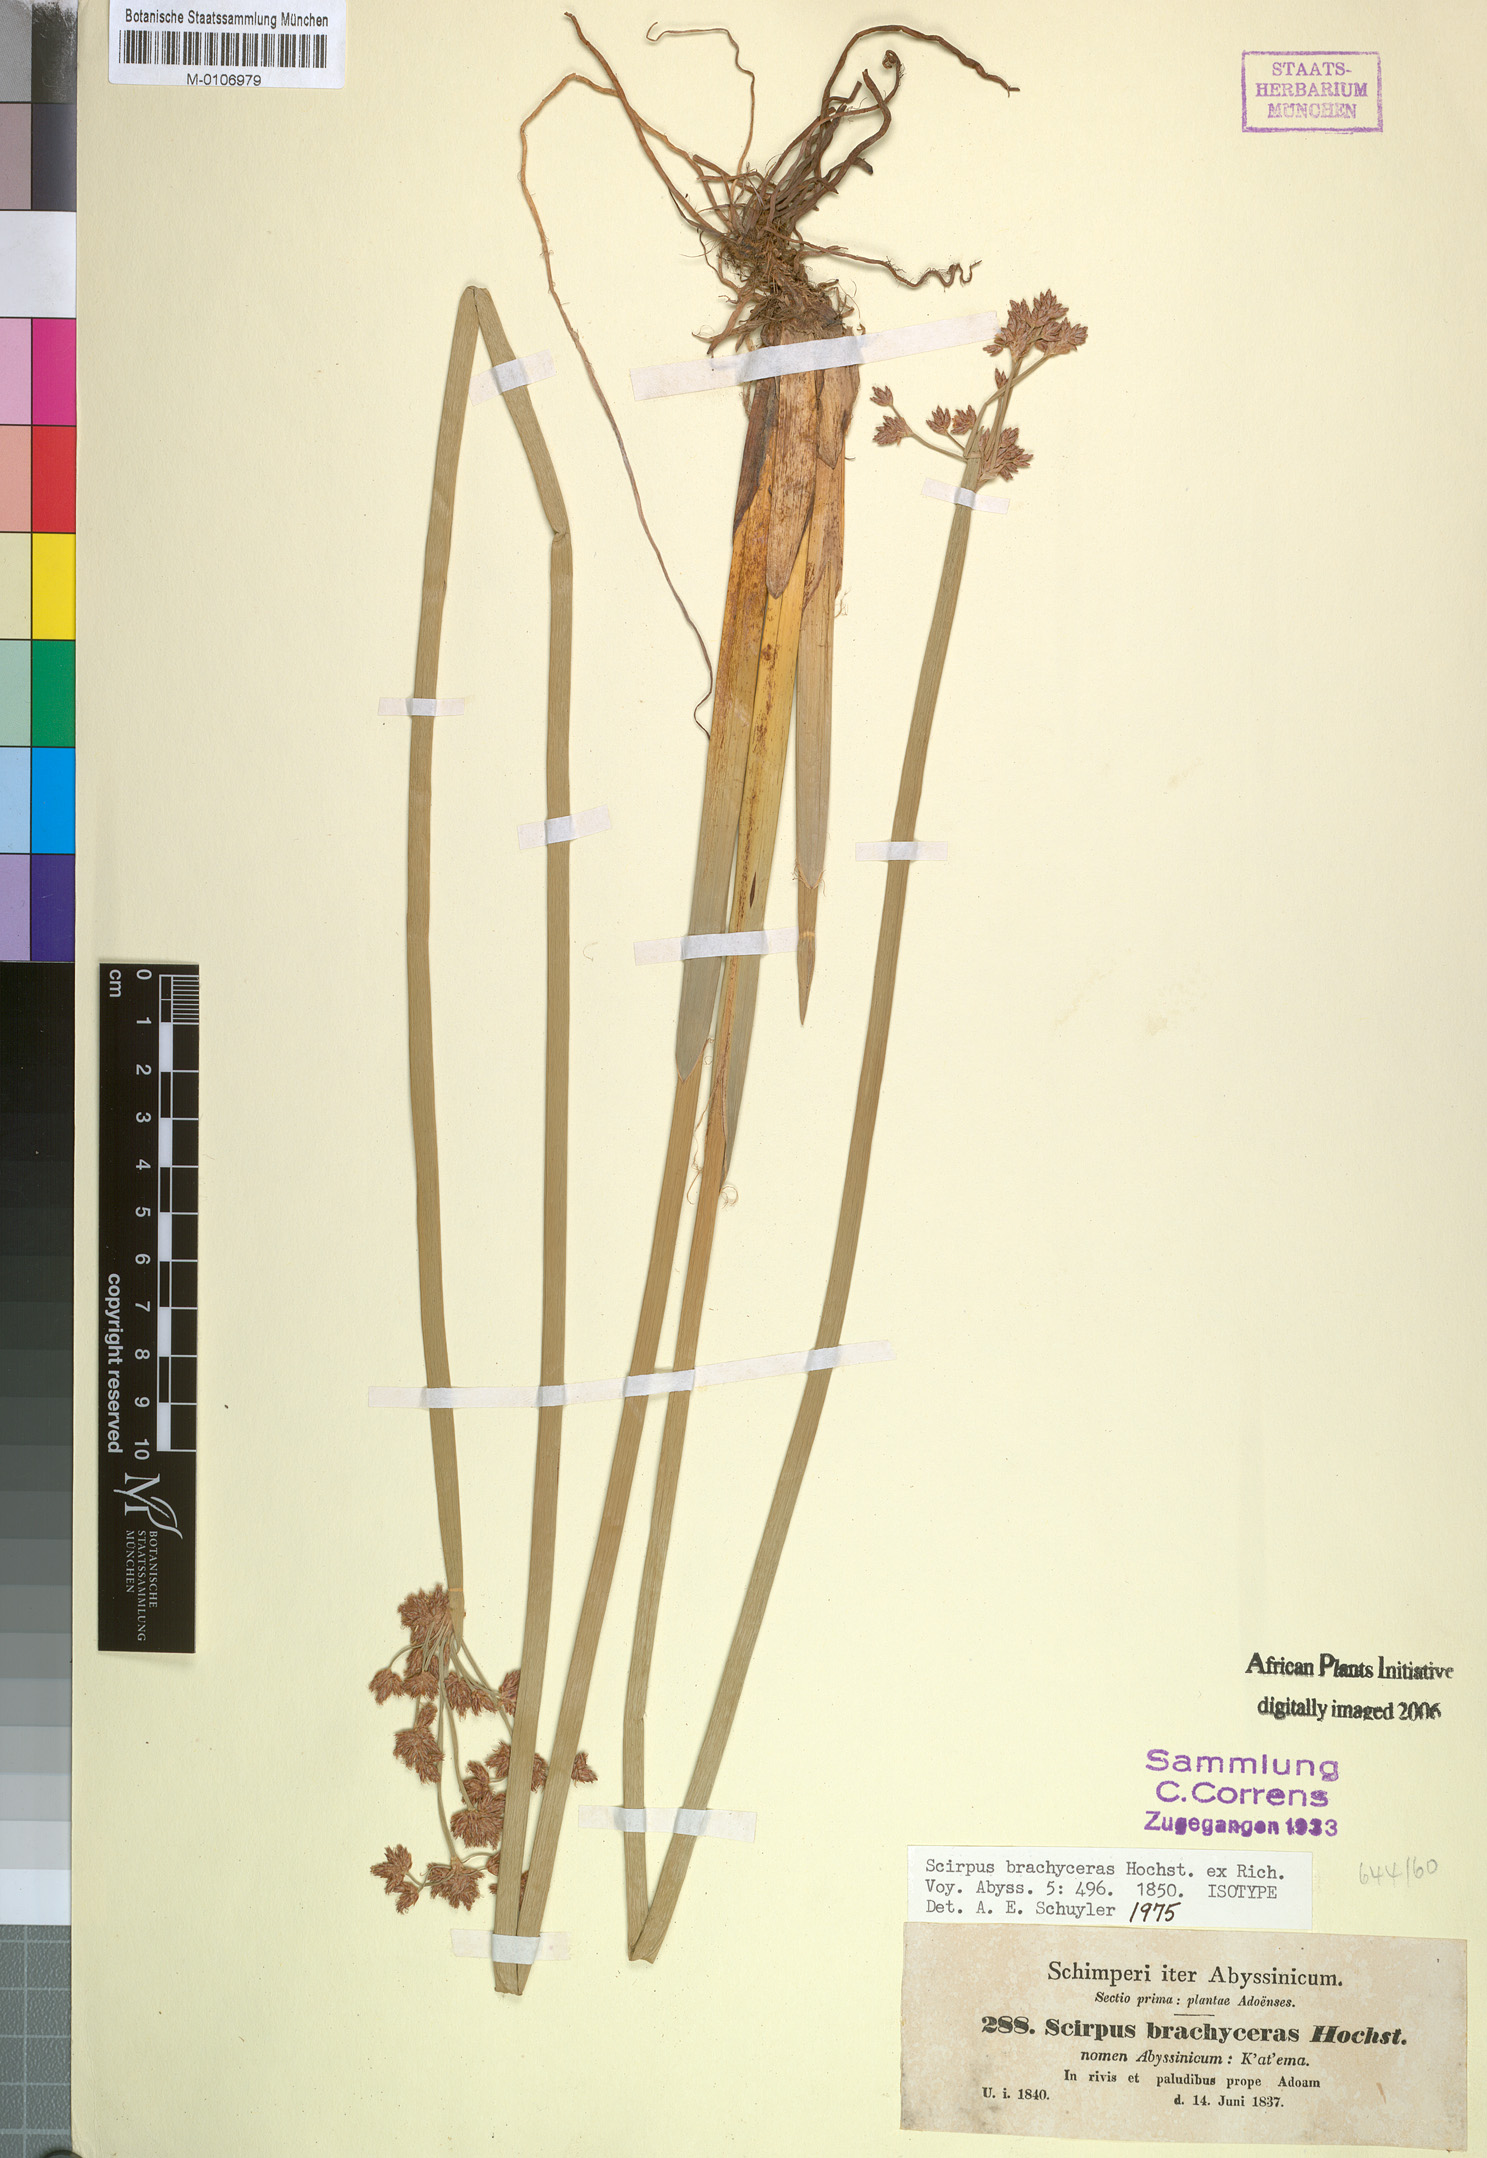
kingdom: Plantae
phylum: Tracheophyta
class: Liliopsida
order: Poales
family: Cyperaceae
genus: Schoenoplectiella
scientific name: Schoenoplectiella brachyceras
